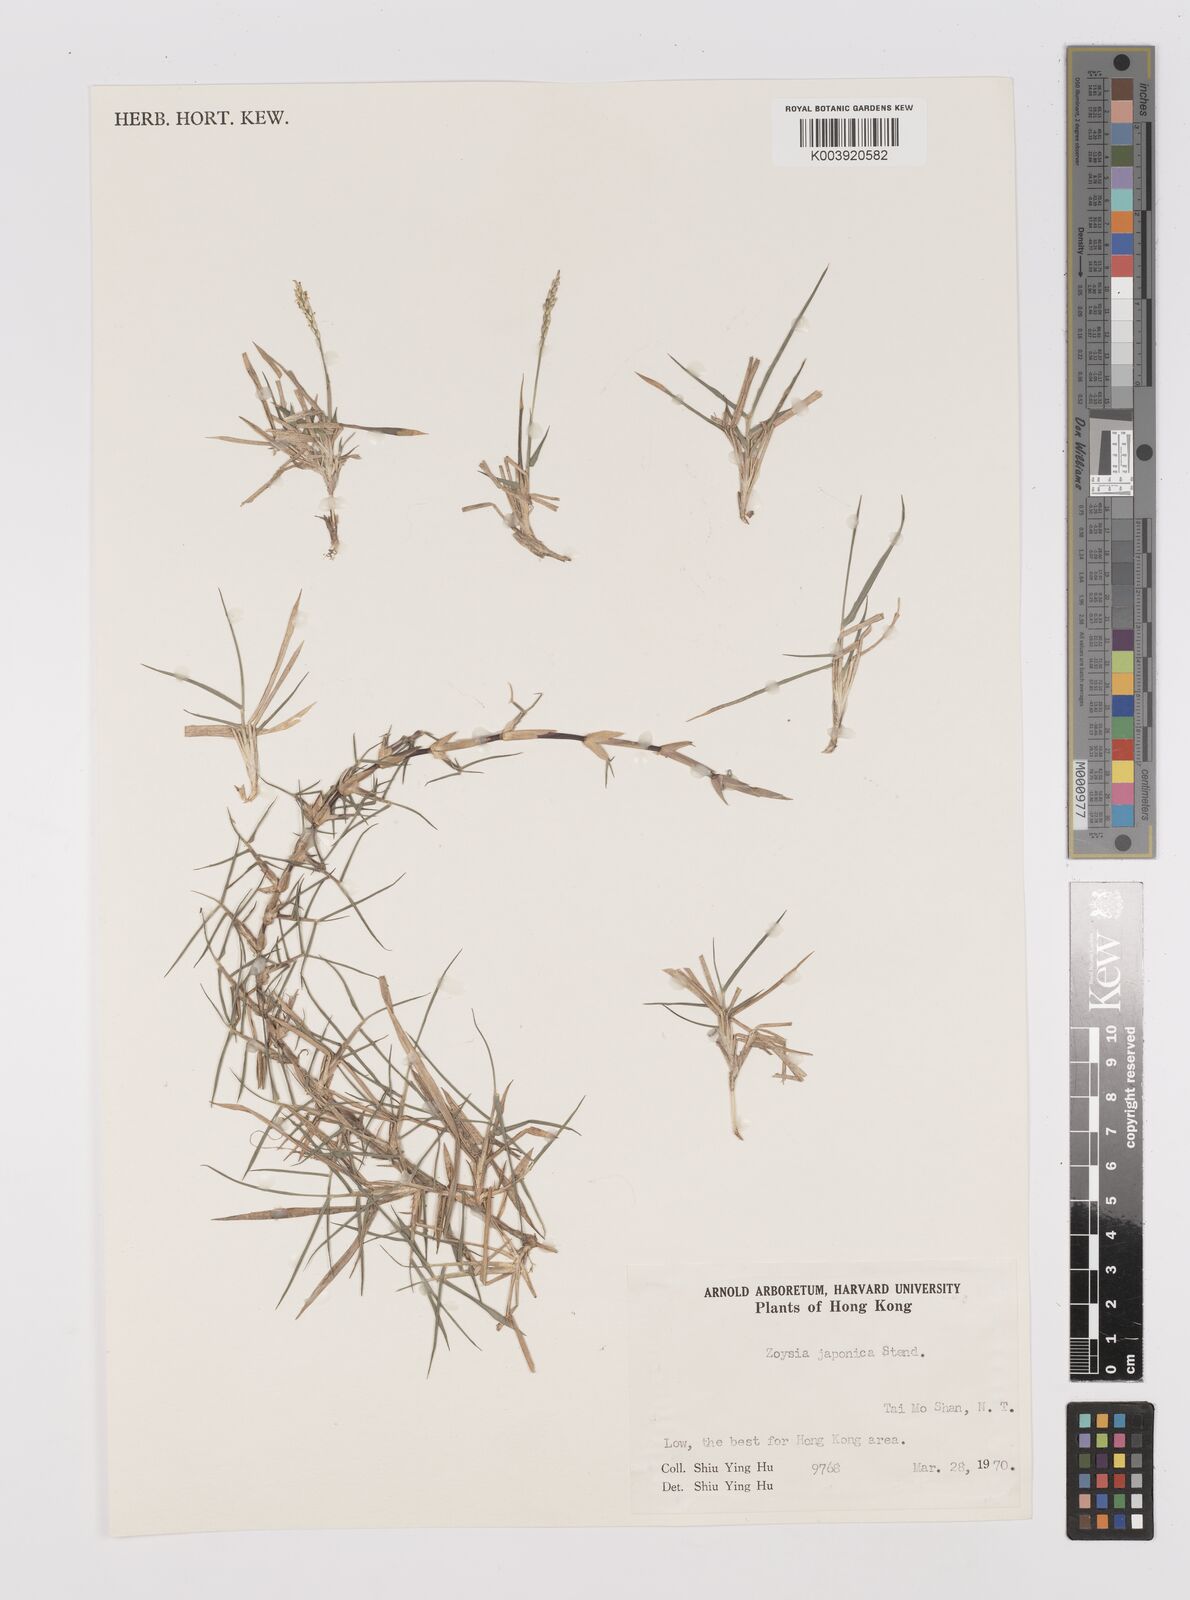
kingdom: Plantae
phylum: Tracheophyta
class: Liliopsida
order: Poales
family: Poaceae
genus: Zoysia
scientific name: Zoysia japonica
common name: Korean lawngrass
